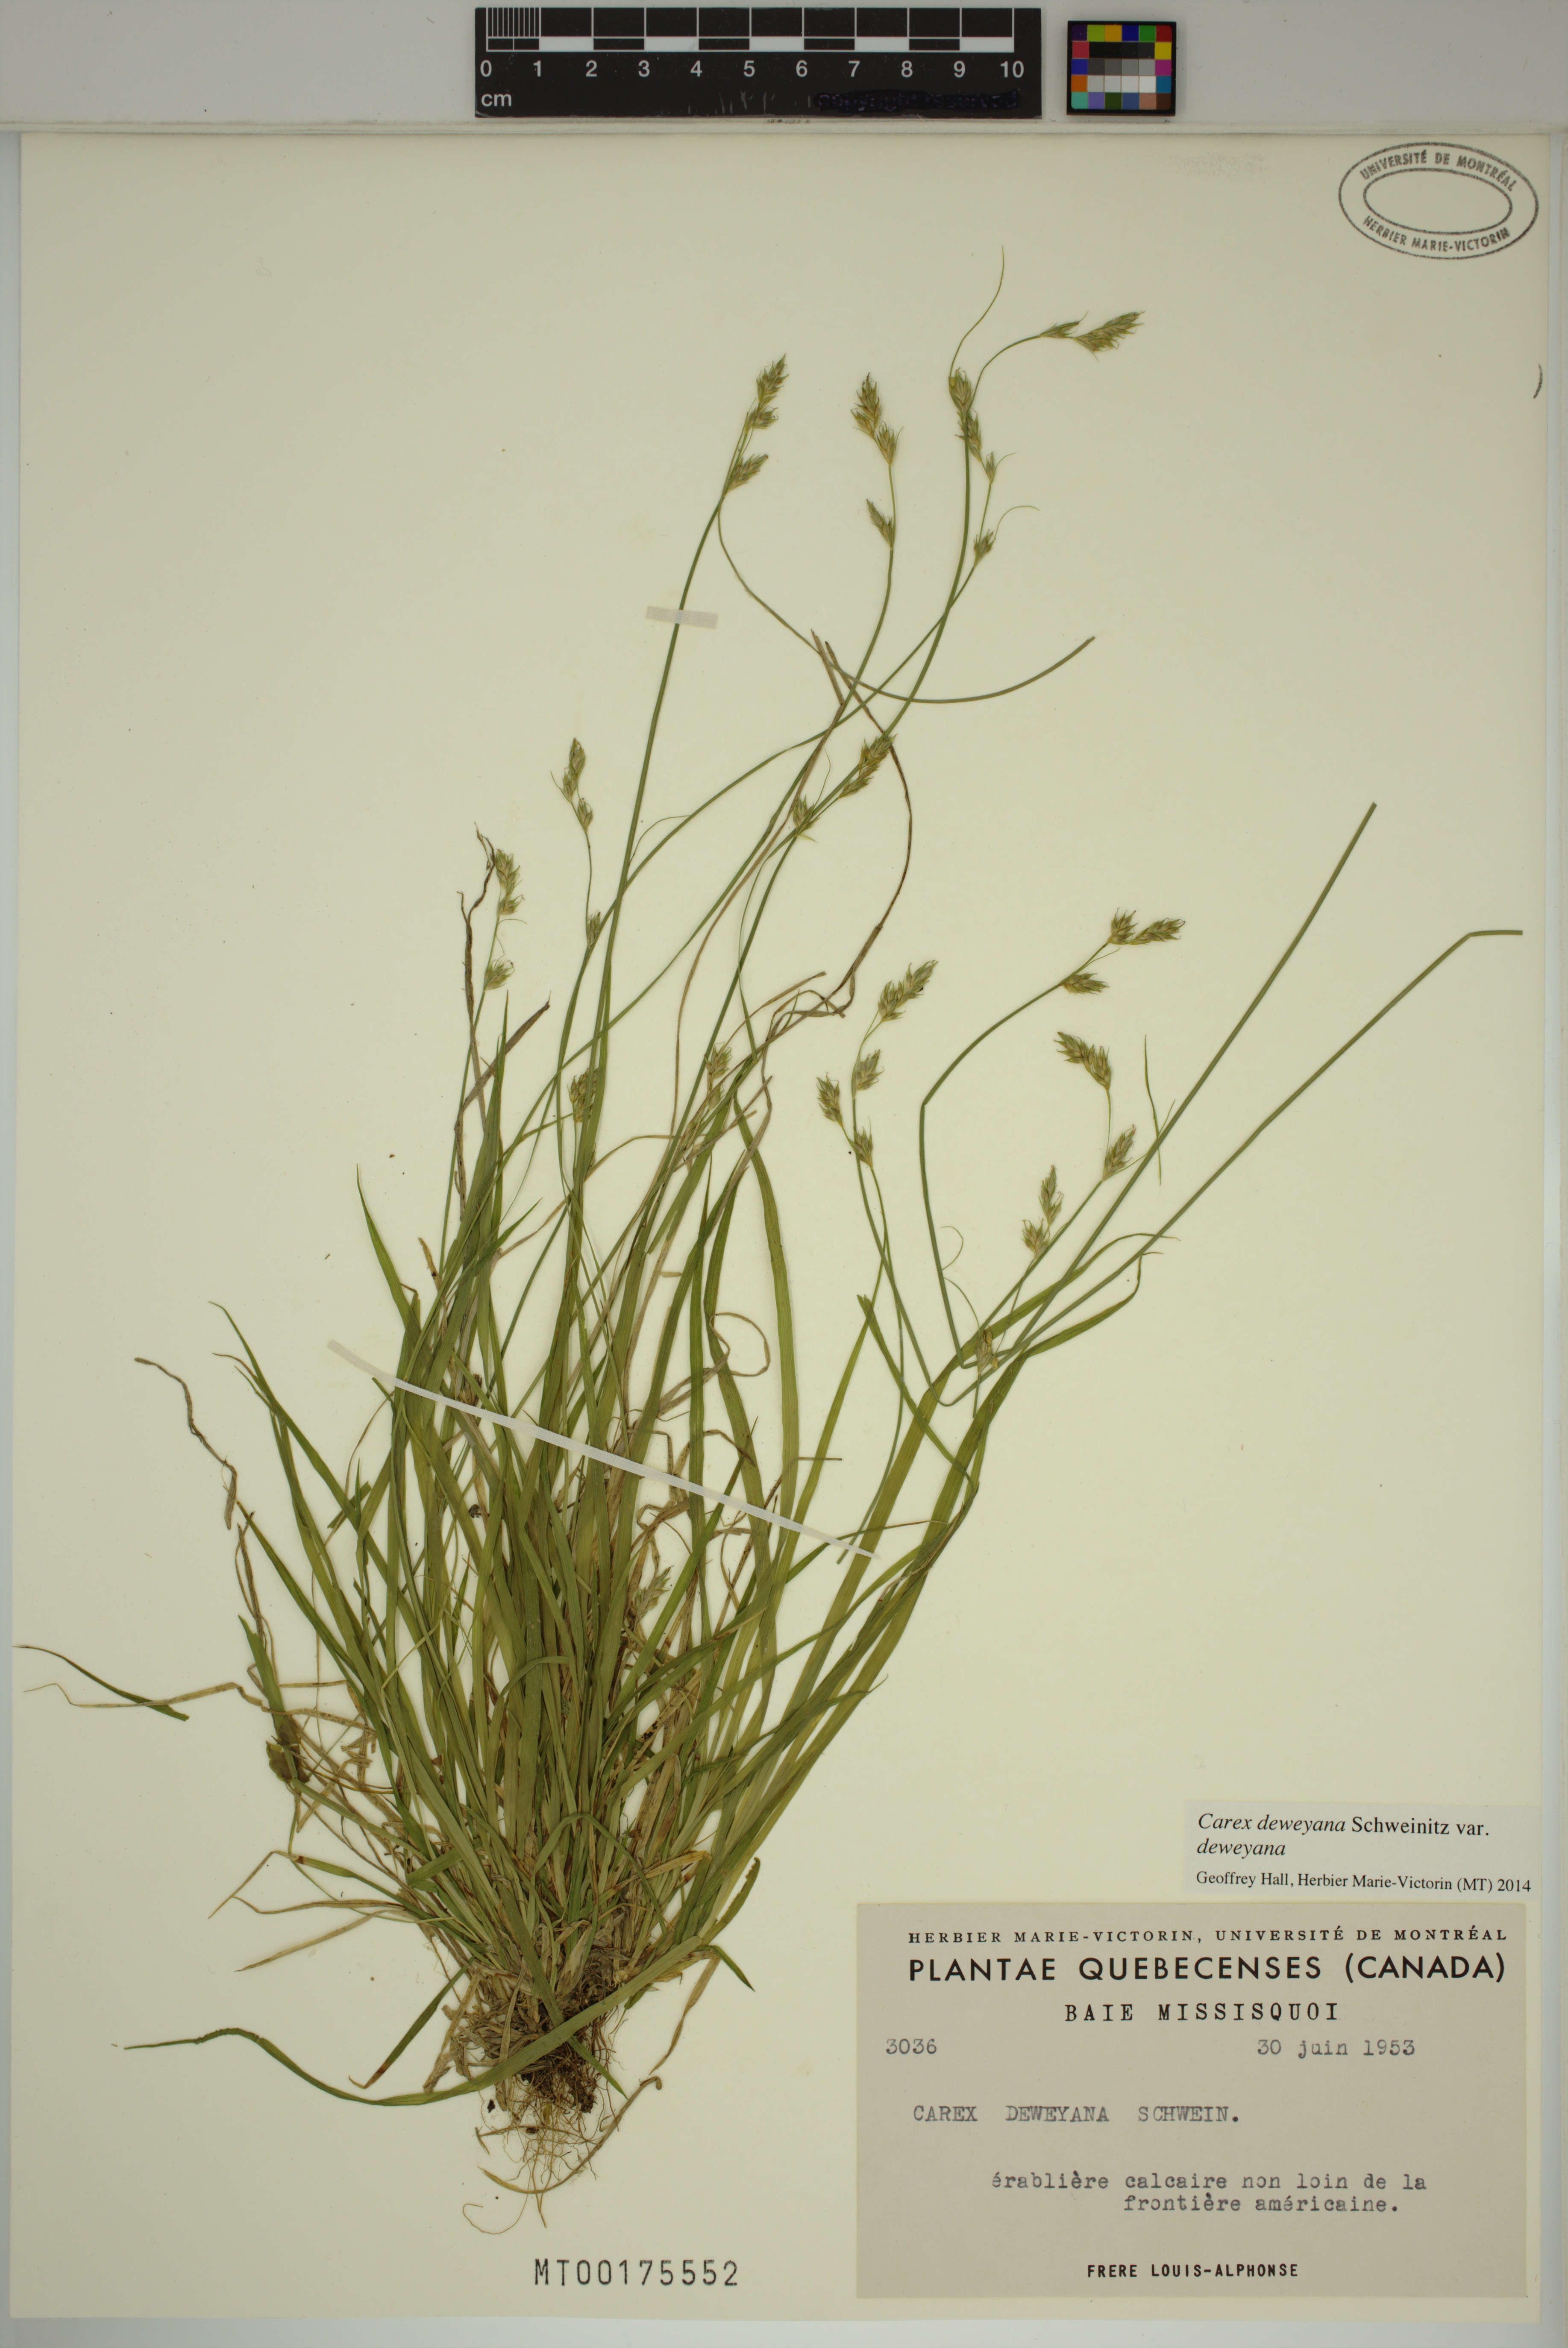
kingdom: Plantae
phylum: Tracheophyta
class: Liliopsida
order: Poales
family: Cyperaceae
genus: Carex
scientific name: Carex deweyana
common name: Dewey's sedge
